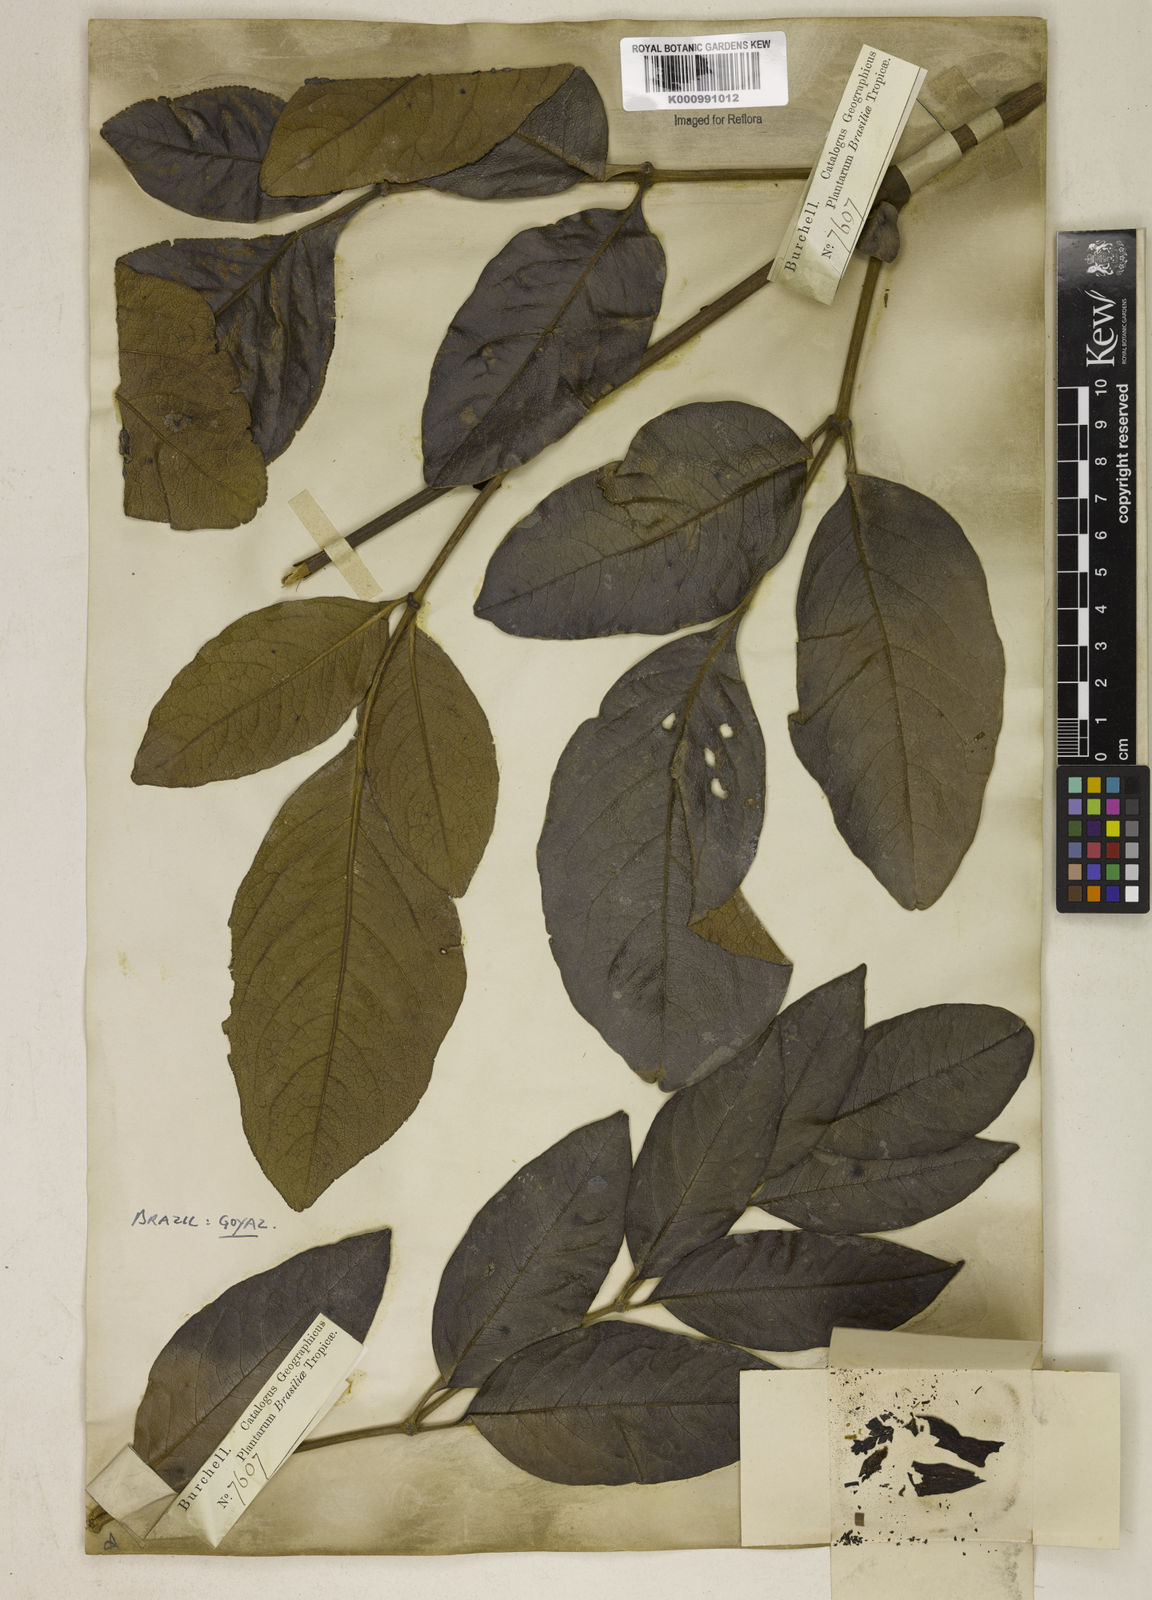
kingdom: Plantae
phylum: Tracheophyta
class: Magnoliopsida
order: Lamiales
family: Bignoniaceae
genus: Adenocalymma
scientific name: Adenocalymma axillare
